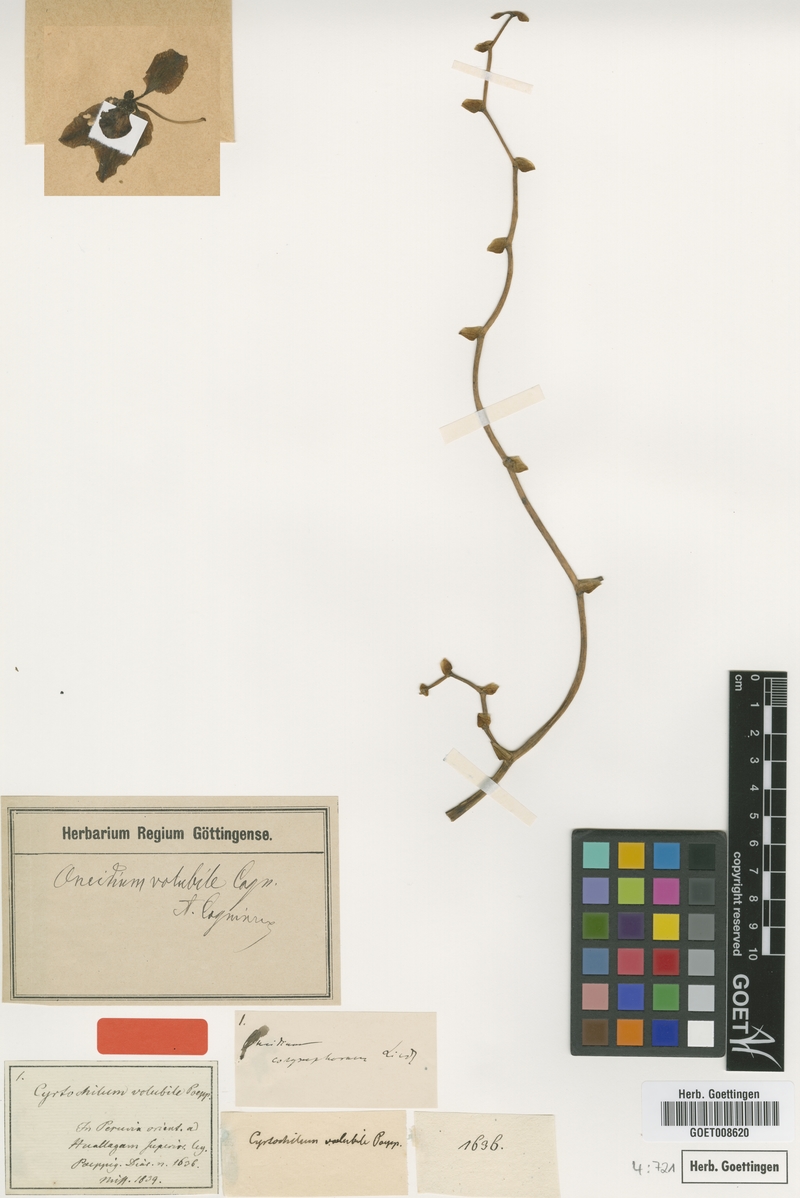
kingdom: Plantae
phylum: Tracheophyta
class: Liliopsida
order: Asparagales
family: Orchidaceae
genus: Cyrtochilum
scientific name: Cyrtochilum volubile
